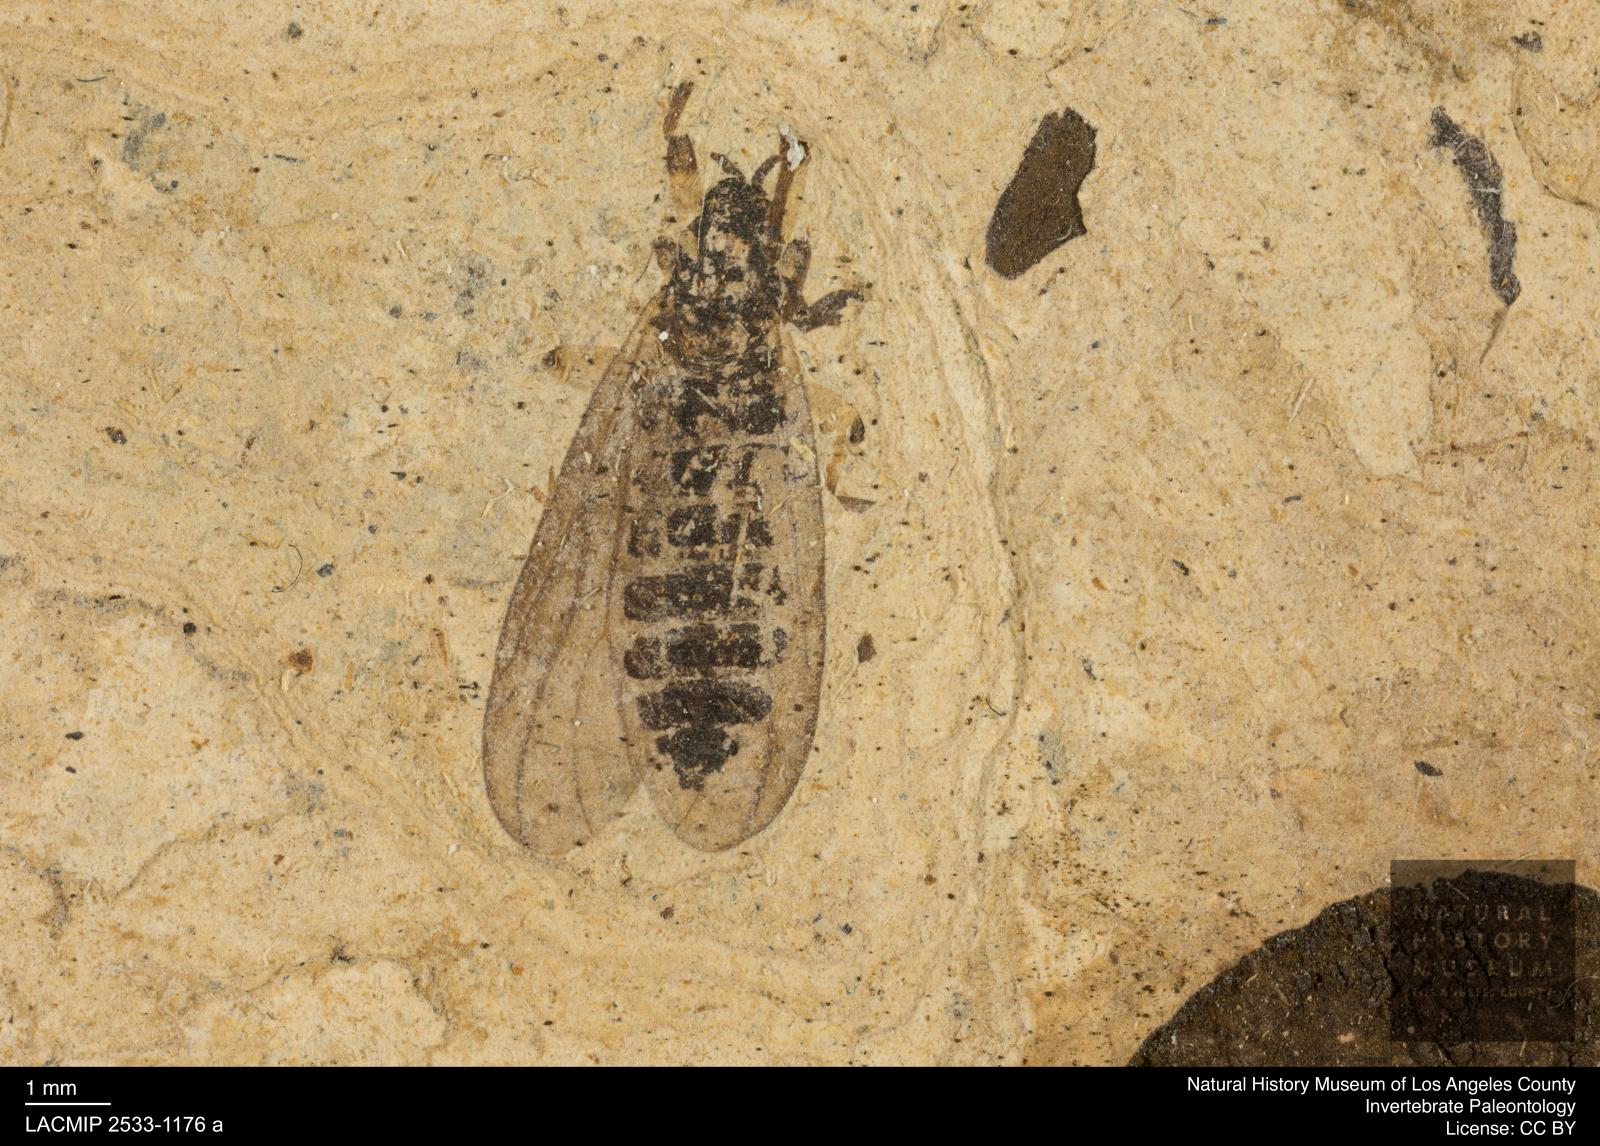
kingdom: Animalia
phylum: Arthropoda
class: Insecta
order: Diptera
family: Bibionidae
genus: Plecia
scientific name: Plecia hypogaea
